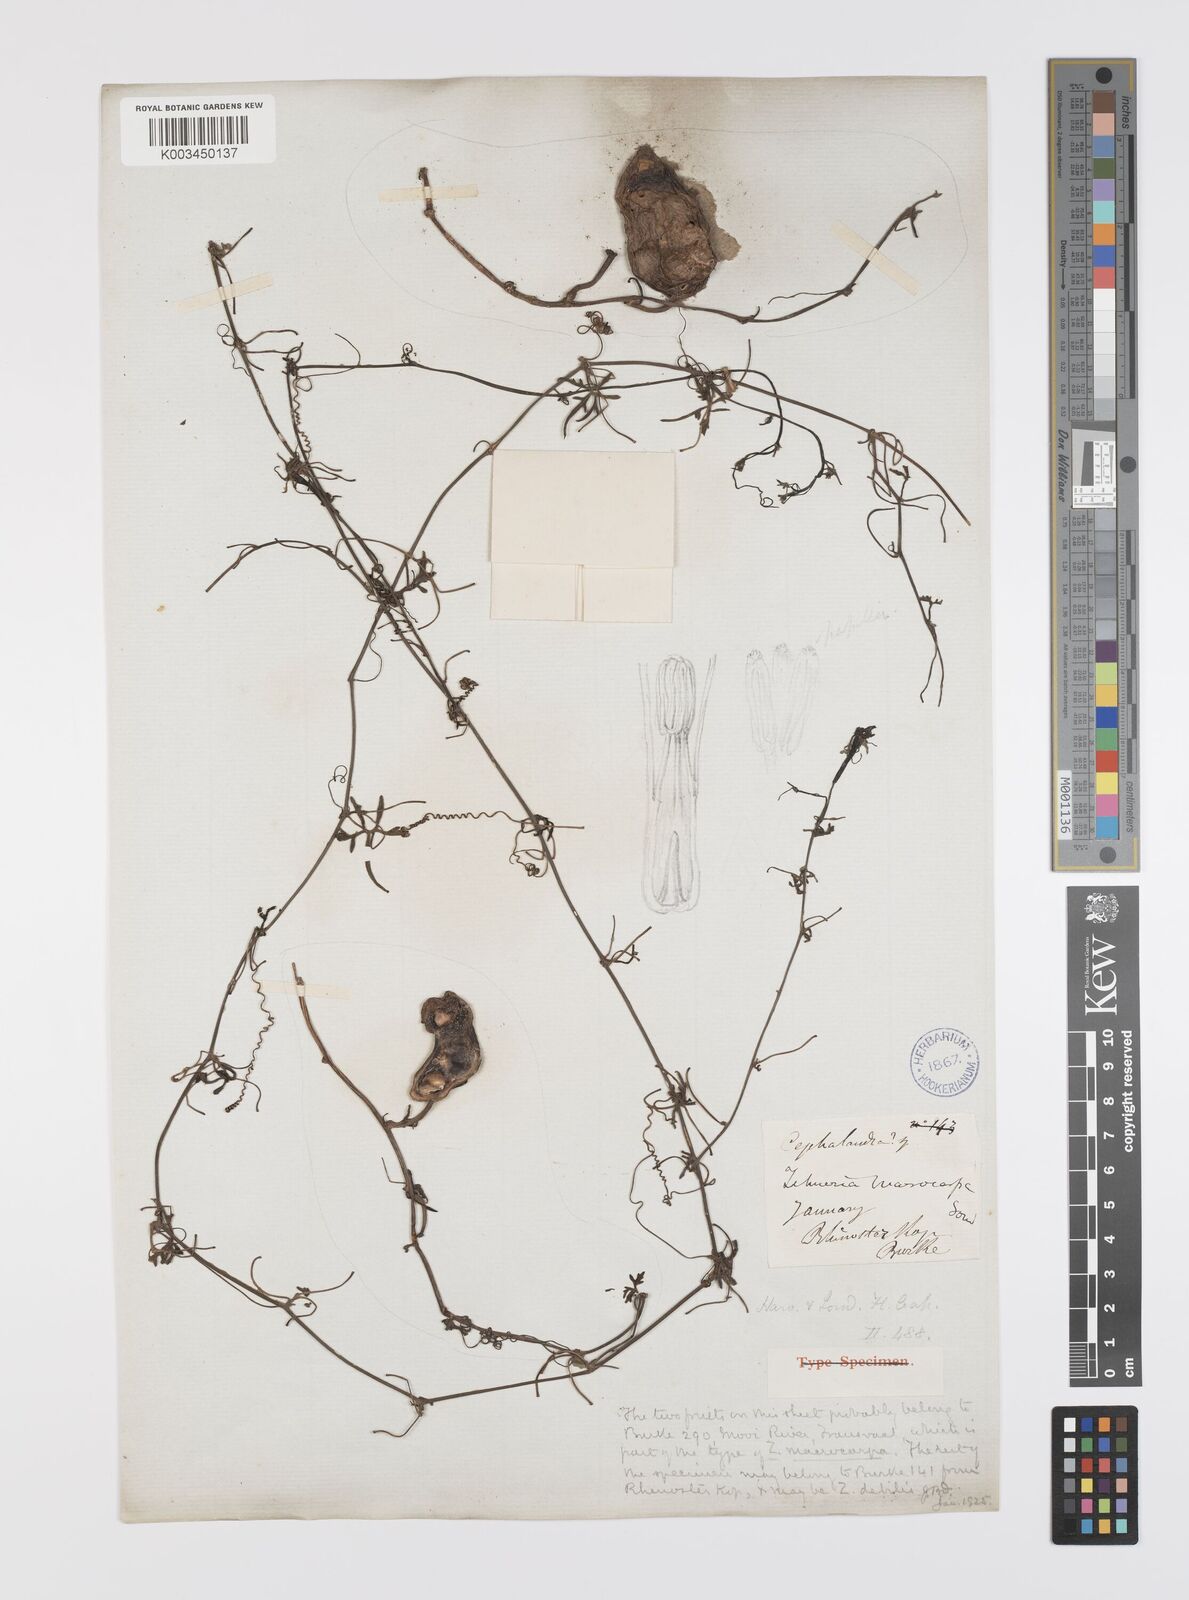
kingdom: Plantae
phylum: Tracheophyta
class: Magnoliopsida
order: Cucurbitales
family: Cucurbitaceae
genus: Trochomeria
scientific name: Trochomeria macrocarpa
